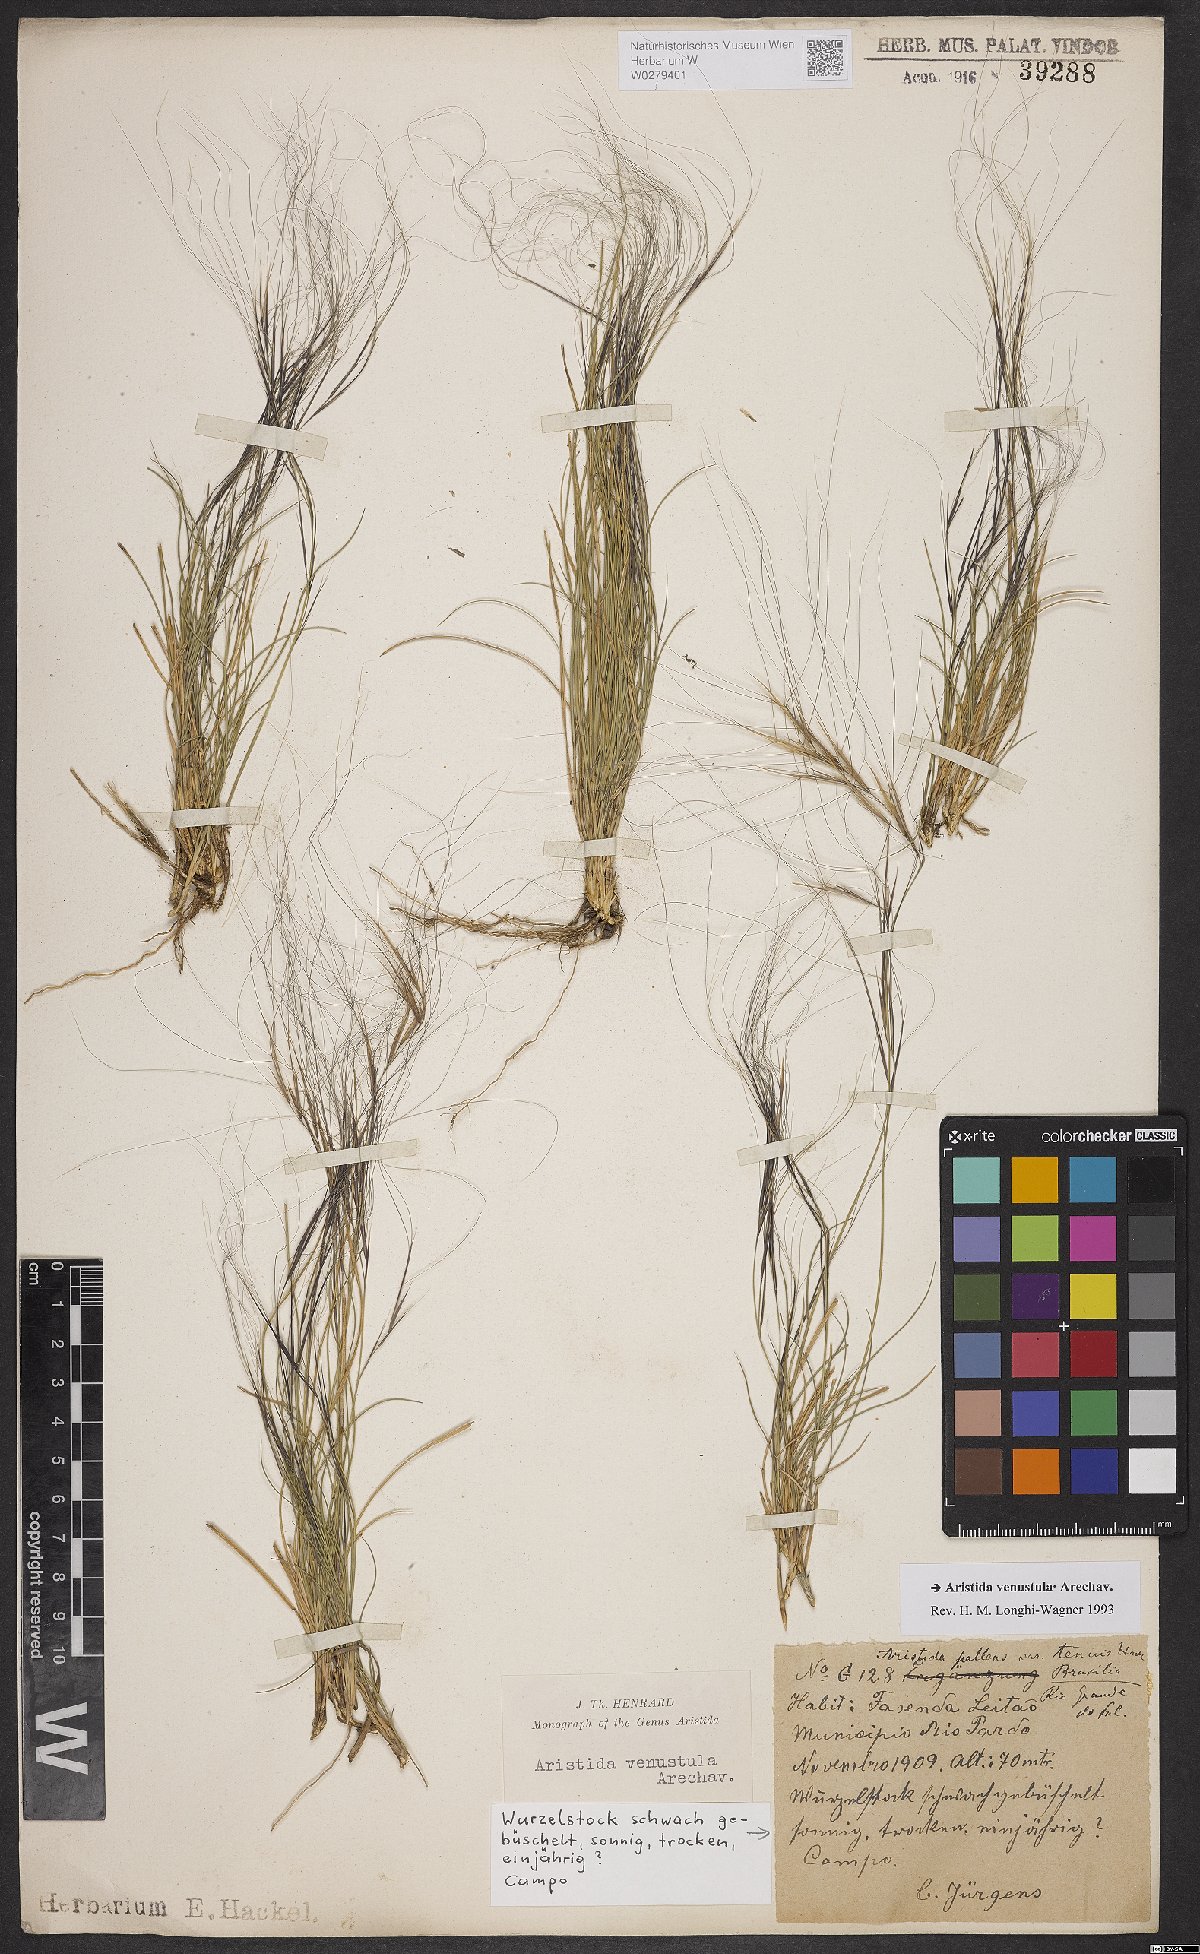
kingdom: Plantae
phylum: Tracheophyta
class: Liliopsida
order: Poales
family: Poaceae
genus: Aristida
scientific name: Aristida venustula
